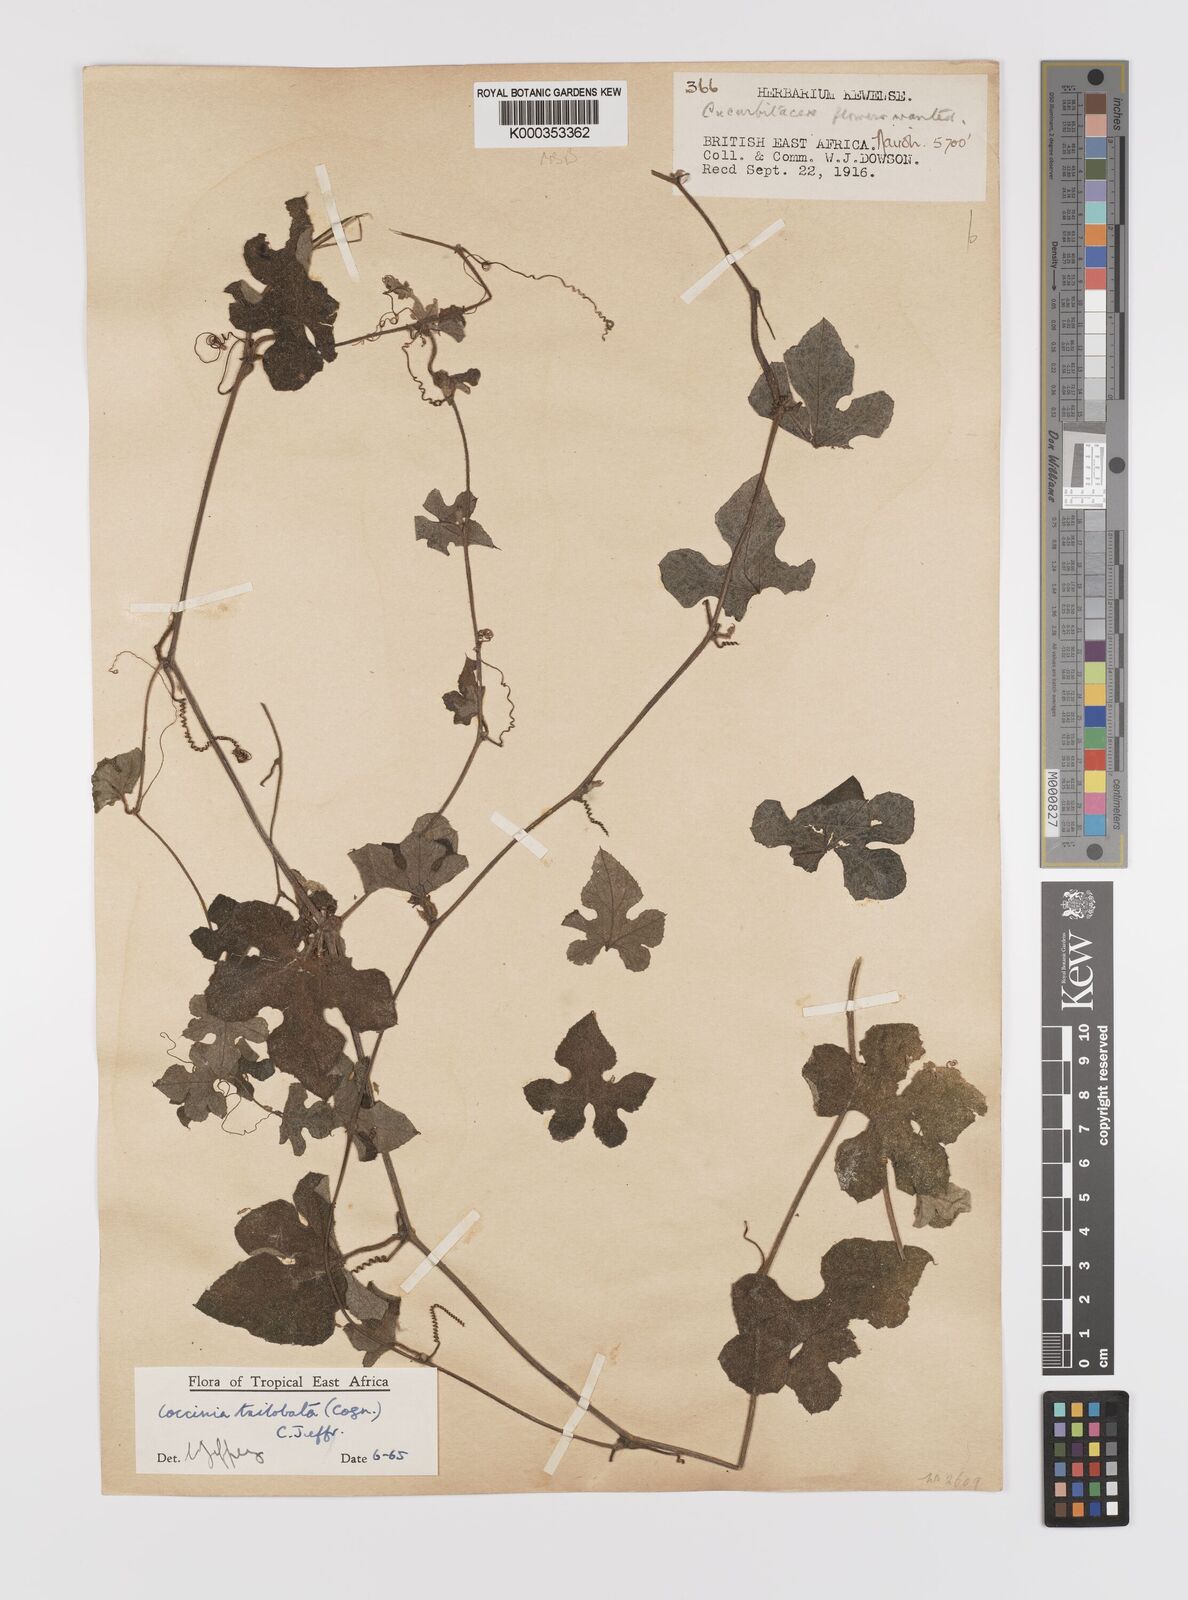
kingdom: Plantae
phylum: Tracheophyta
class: Magnoliopsida
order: Cucurbitales
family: Cucurbitaceae
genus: Coccinia
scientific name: Coccinia trilobata
